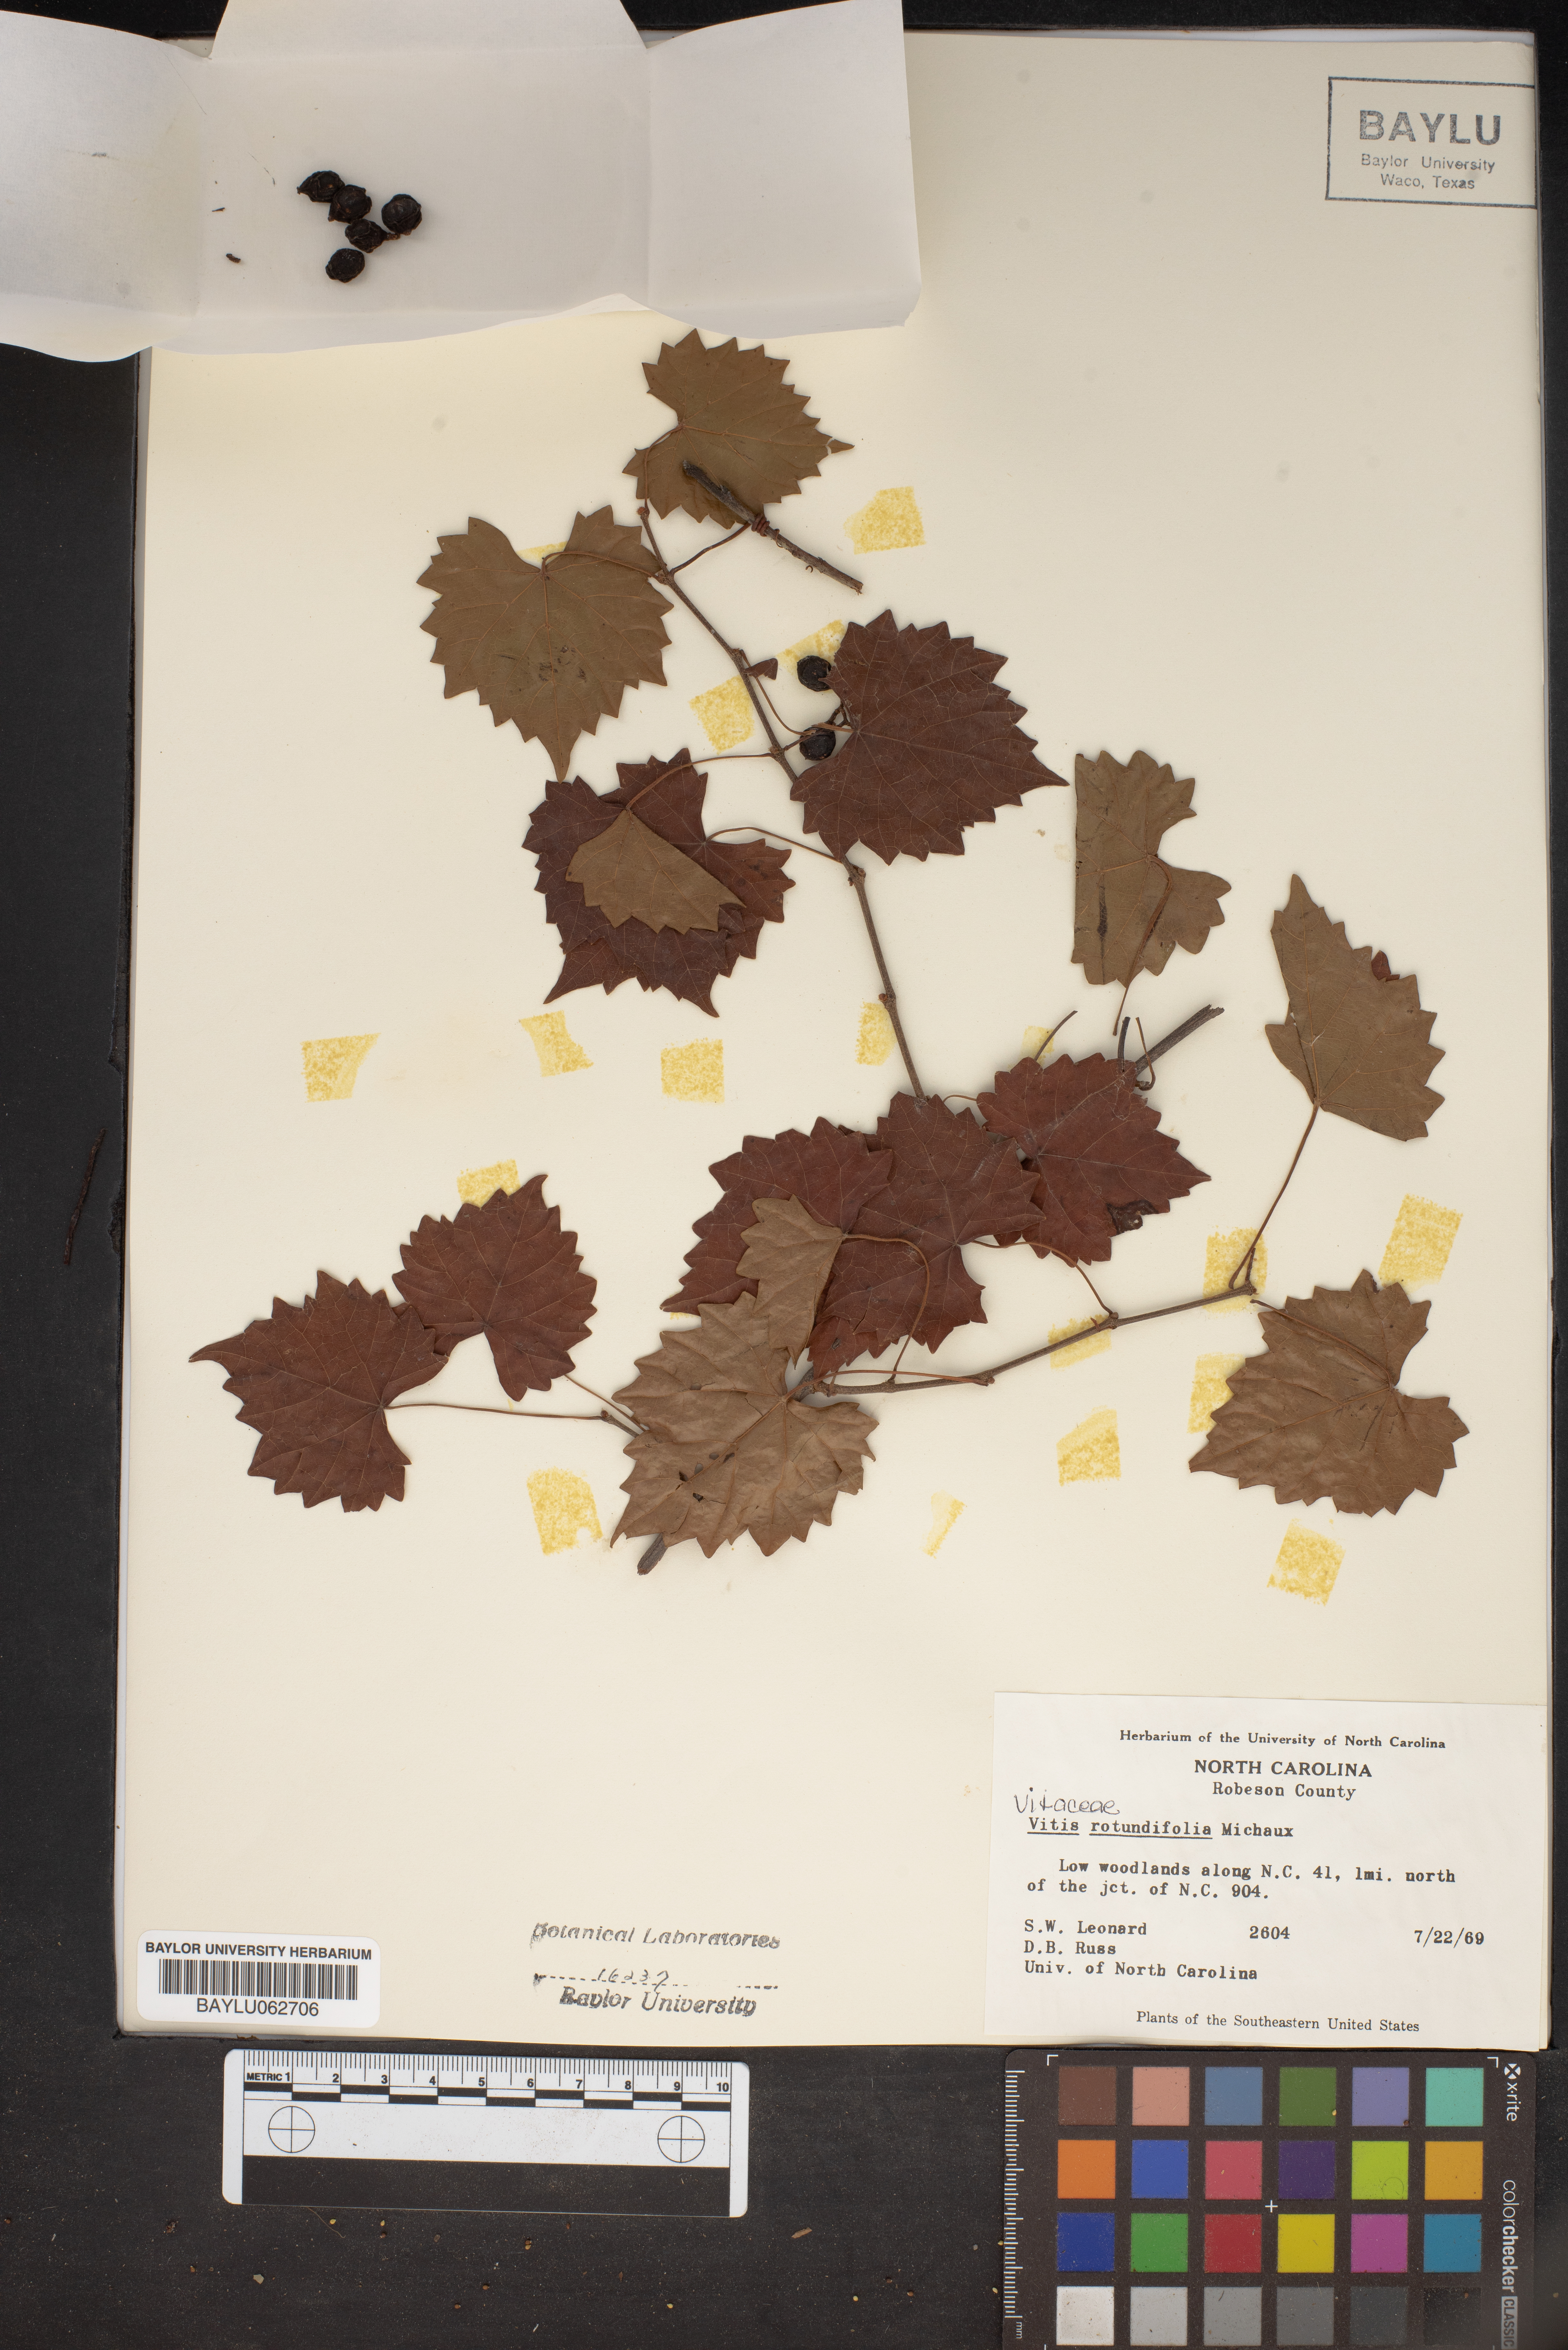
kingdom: Plantae
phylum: Tracheophyta
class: Magnoliopsida
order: Vitales
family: Vitaceae
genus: Vitis
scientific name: Vitis rotundifolia
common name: Muscadine grape
